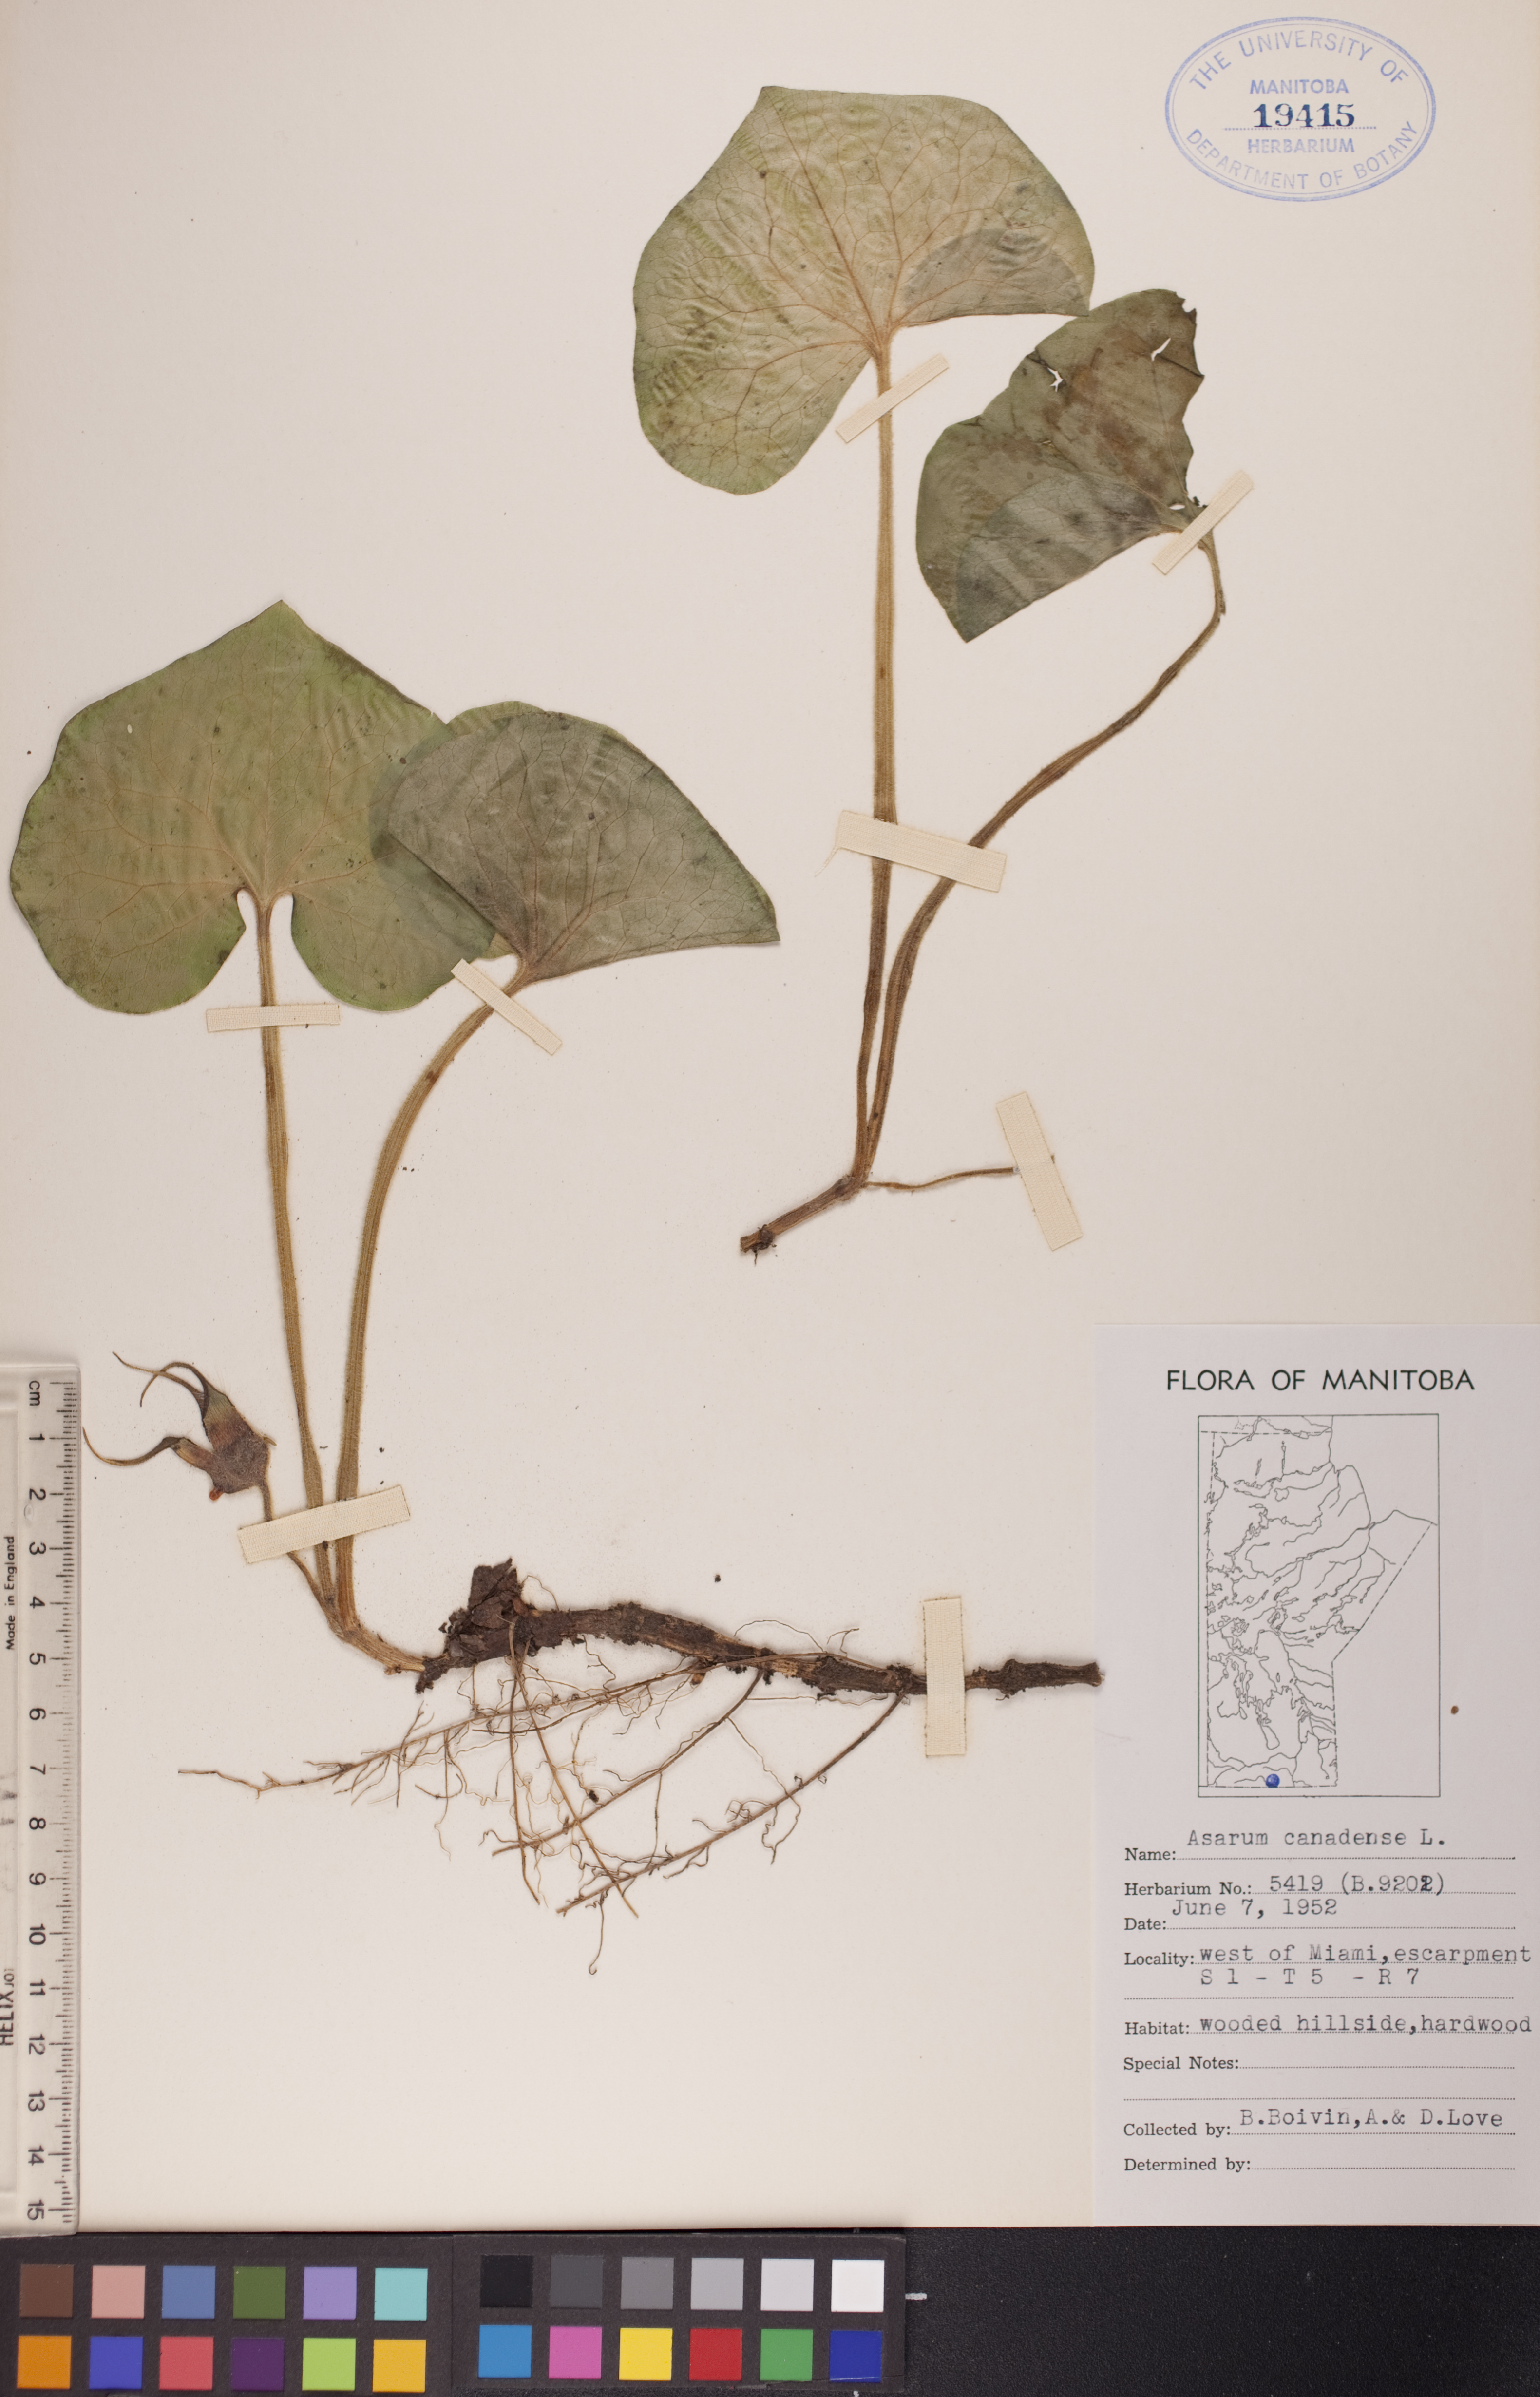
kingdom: Plantae
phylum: Tracheophyta
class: Magnoliopsida
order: Piperales
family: Aristolochiaceae
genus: Asarum
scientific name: Asarum canadense
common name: Wild ginger
